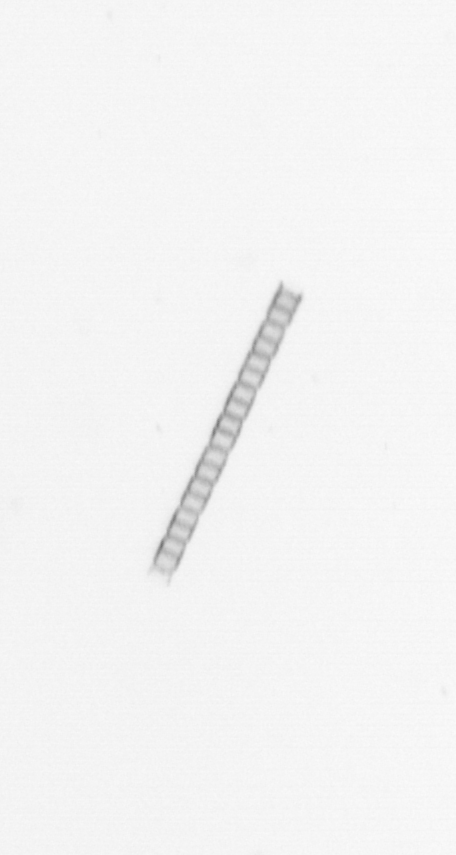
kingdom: Chromista
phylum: Ochrophyta
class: Bacillariophyceae
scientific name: Bacillariophyceae
